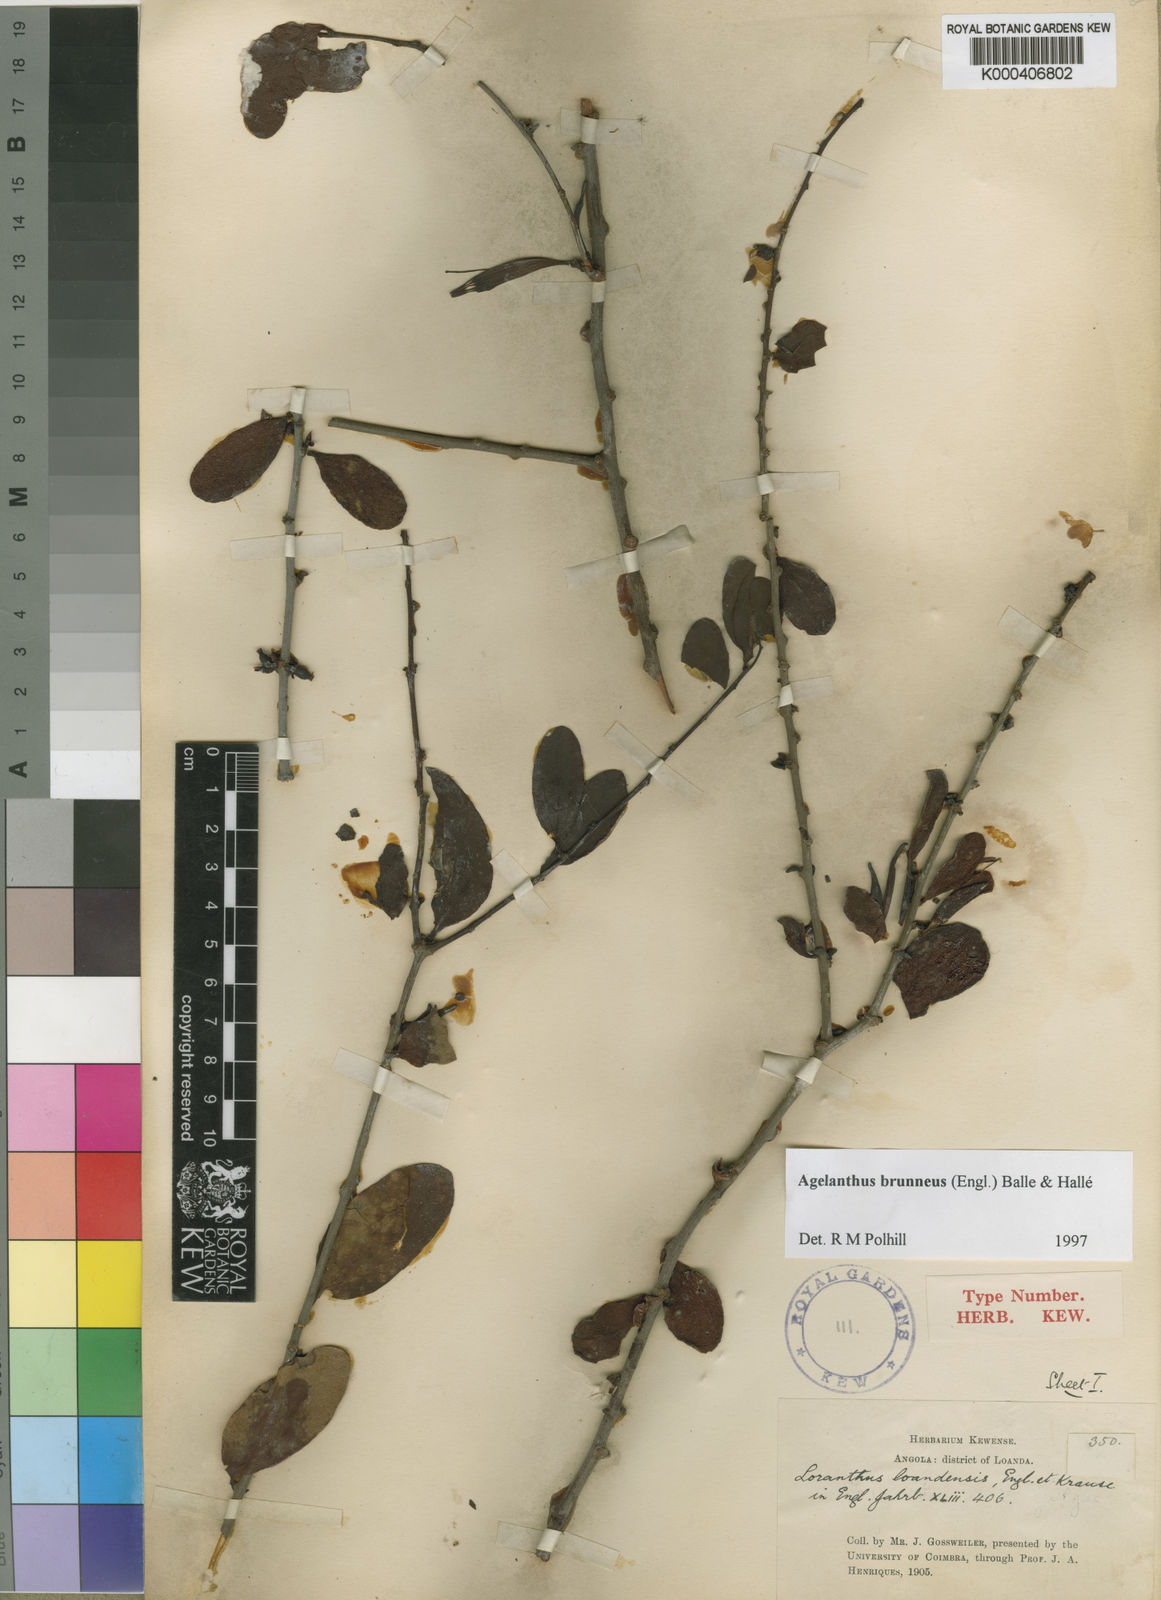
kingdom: Plantae
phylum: Tracheophyta
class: Magnoliopsida
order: Santalales
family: Loranthaceae
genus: Agelanthus
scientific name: Agelanthus
